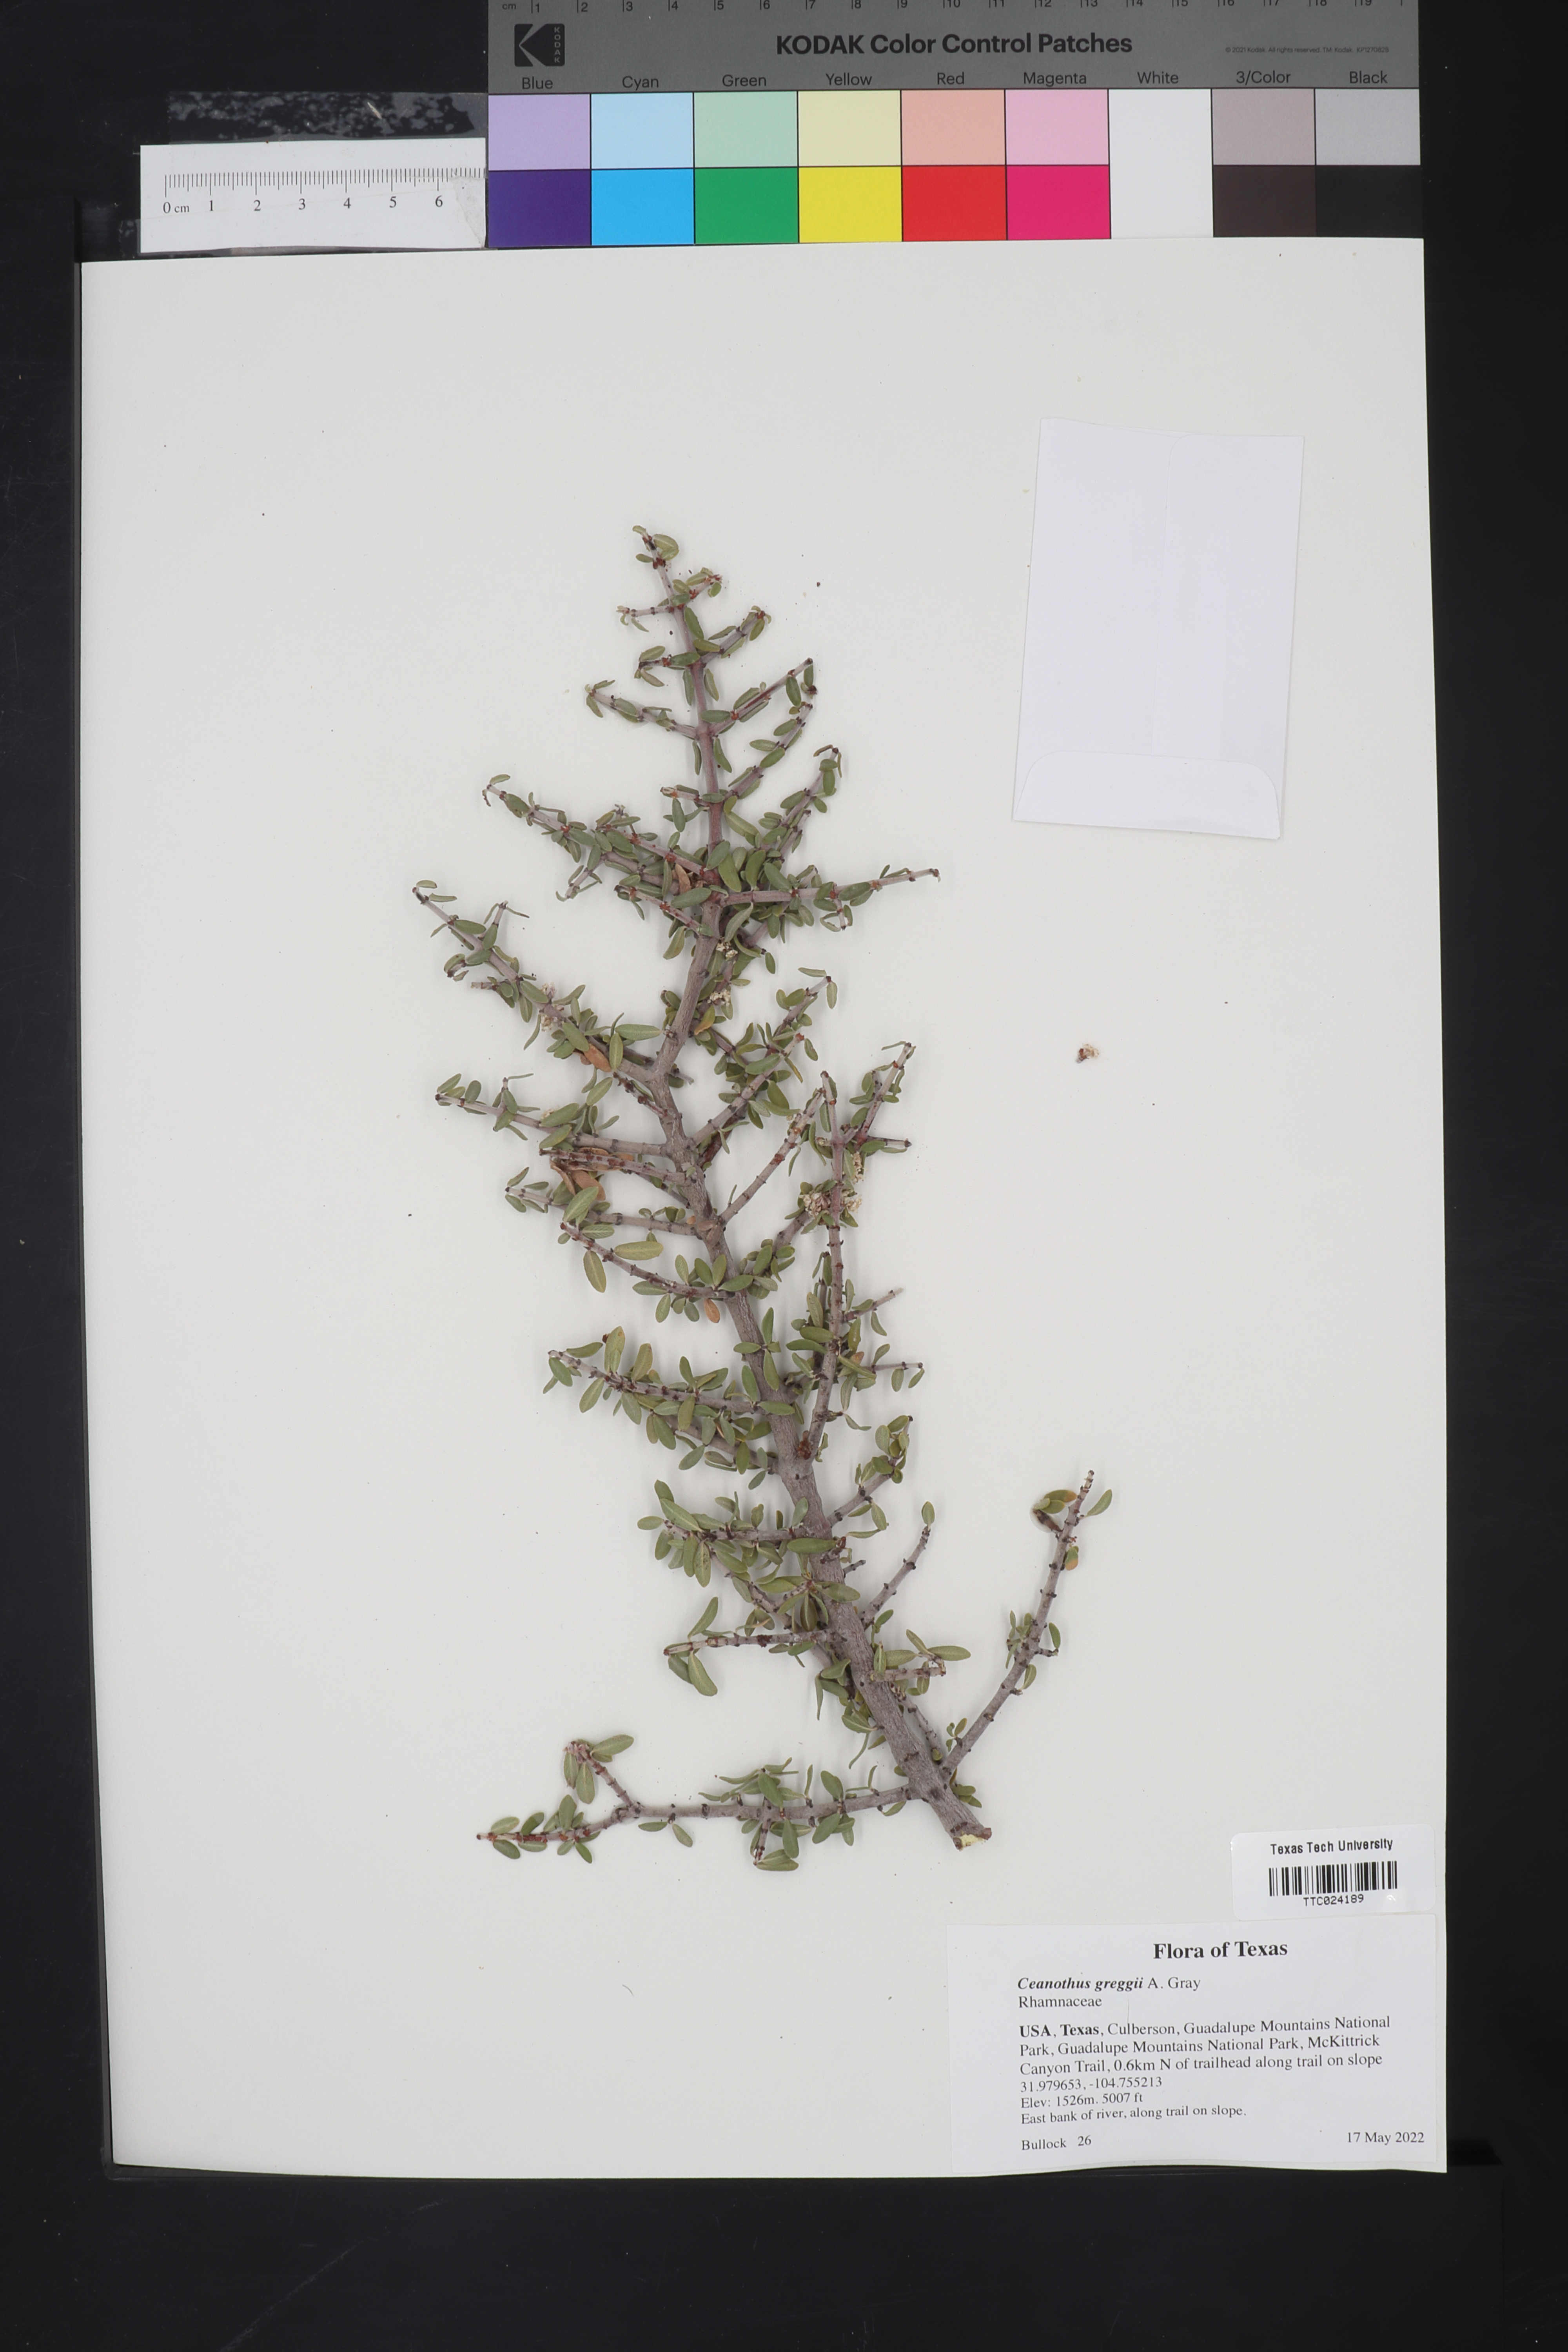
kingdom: Plantae
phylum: Tracheophyta
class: Magnoliopsida
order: Rosales
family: Rhamnaceae
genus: Ceanothus
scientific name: Ceanothus pauciflorus
